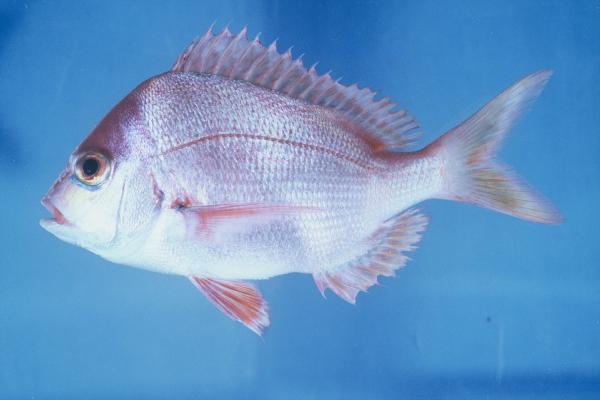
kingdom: Animalia
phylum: Chordata
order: Perciformes
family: Sparidae
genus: Chrysoblephus
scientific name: Chrysoblephus puniceus
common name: Slinger seabream
